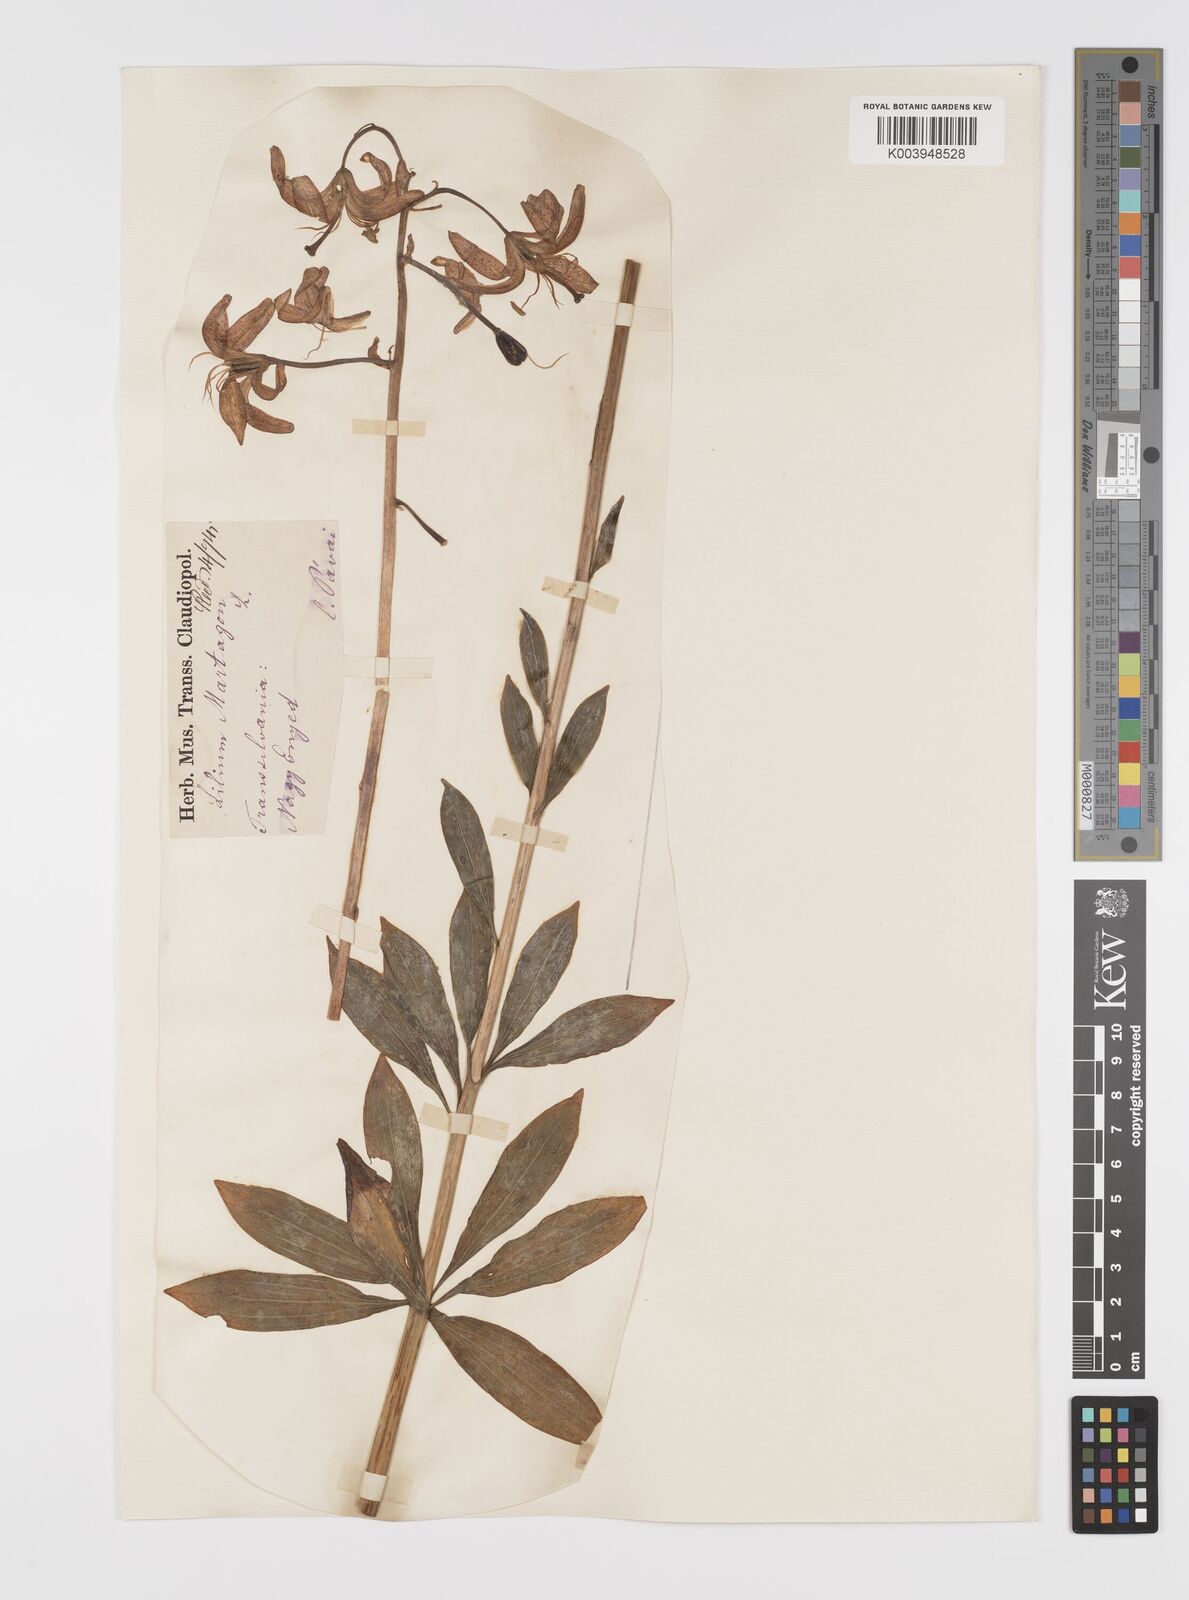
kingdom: Plantae
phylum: Tracheophyta
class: Liliopsida
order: Liliales
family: Liliaceae
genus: Lilium
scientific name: Lilium martagon
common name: Martagon lily
